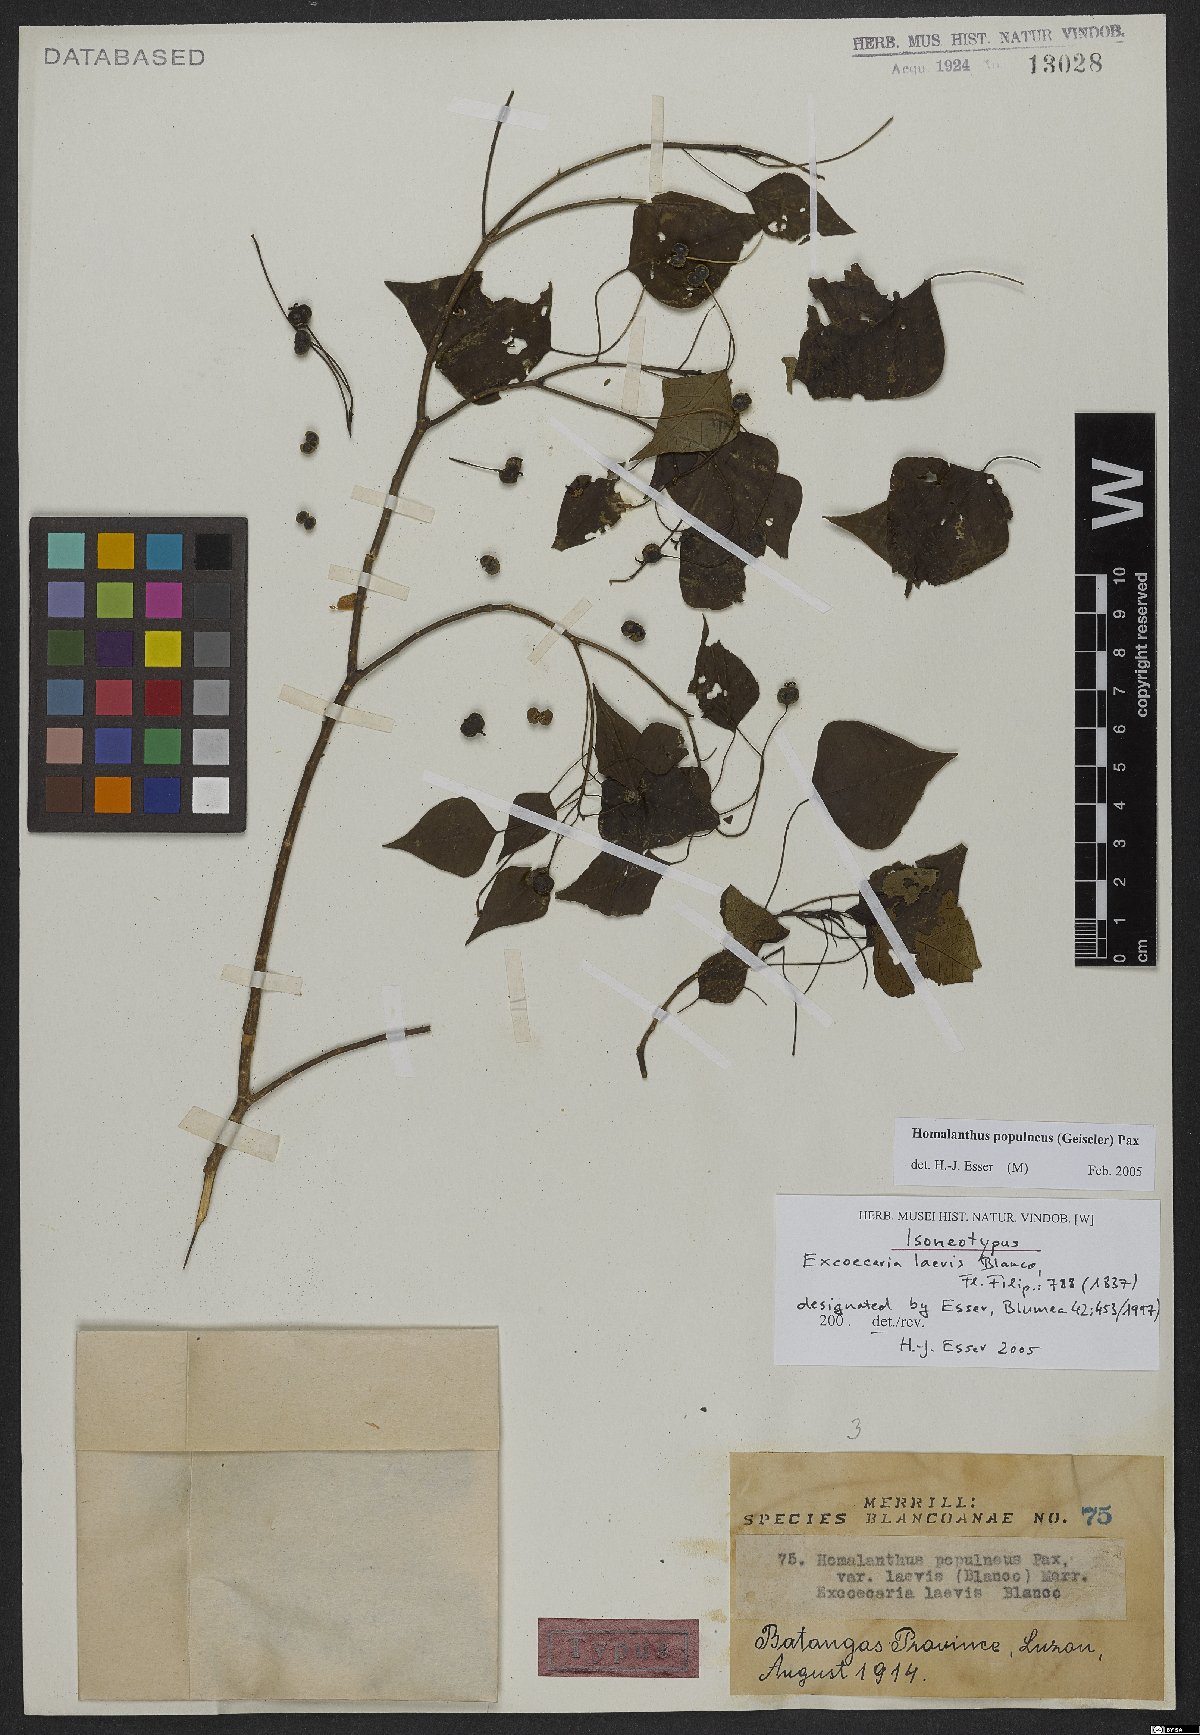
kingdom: Plantae
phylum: Tracheophyta
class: Magnoliopsida
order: Malpighiales
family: Euphorbiaceae
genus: Homalanthus
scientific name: Homalanthus populneus
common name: Spurge
